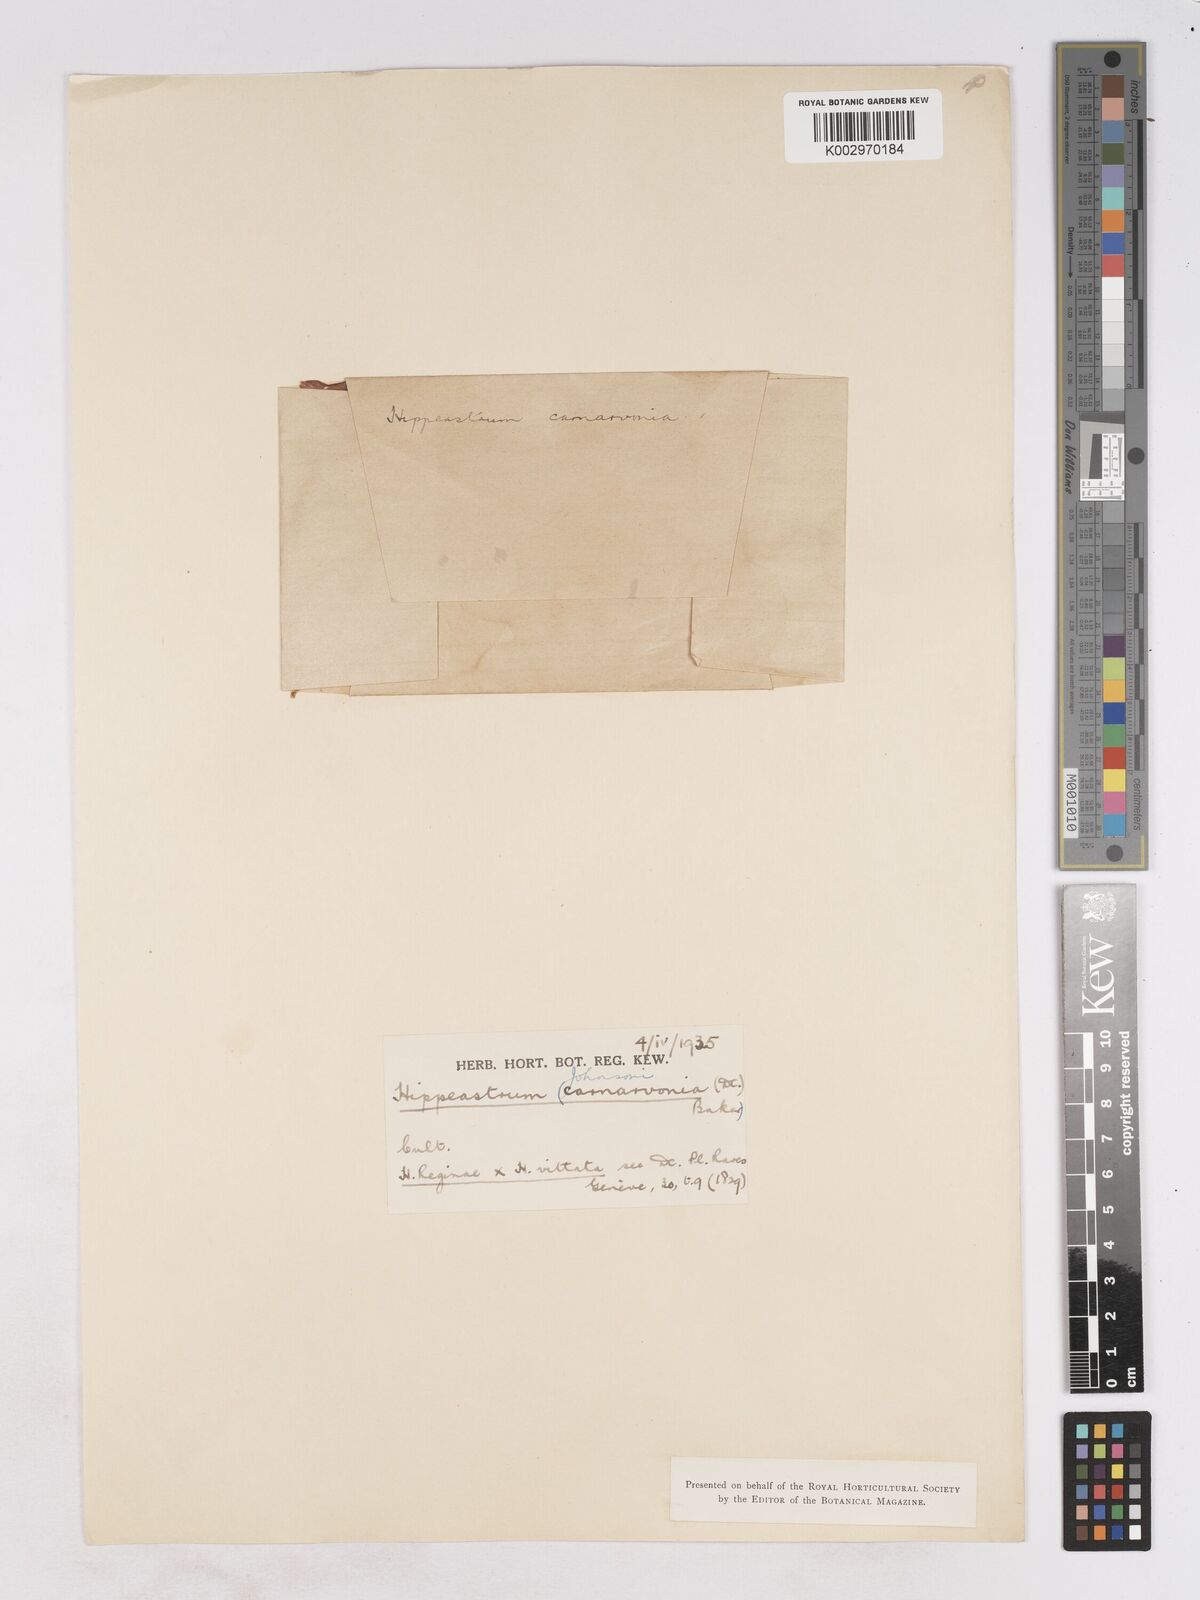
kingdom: Plantae
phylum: Tracheophyta
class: Liliopsida
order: Asparagales
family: Amaryllidaceae
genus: Hippeastrum
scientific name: Hippeastrum johnsonii
